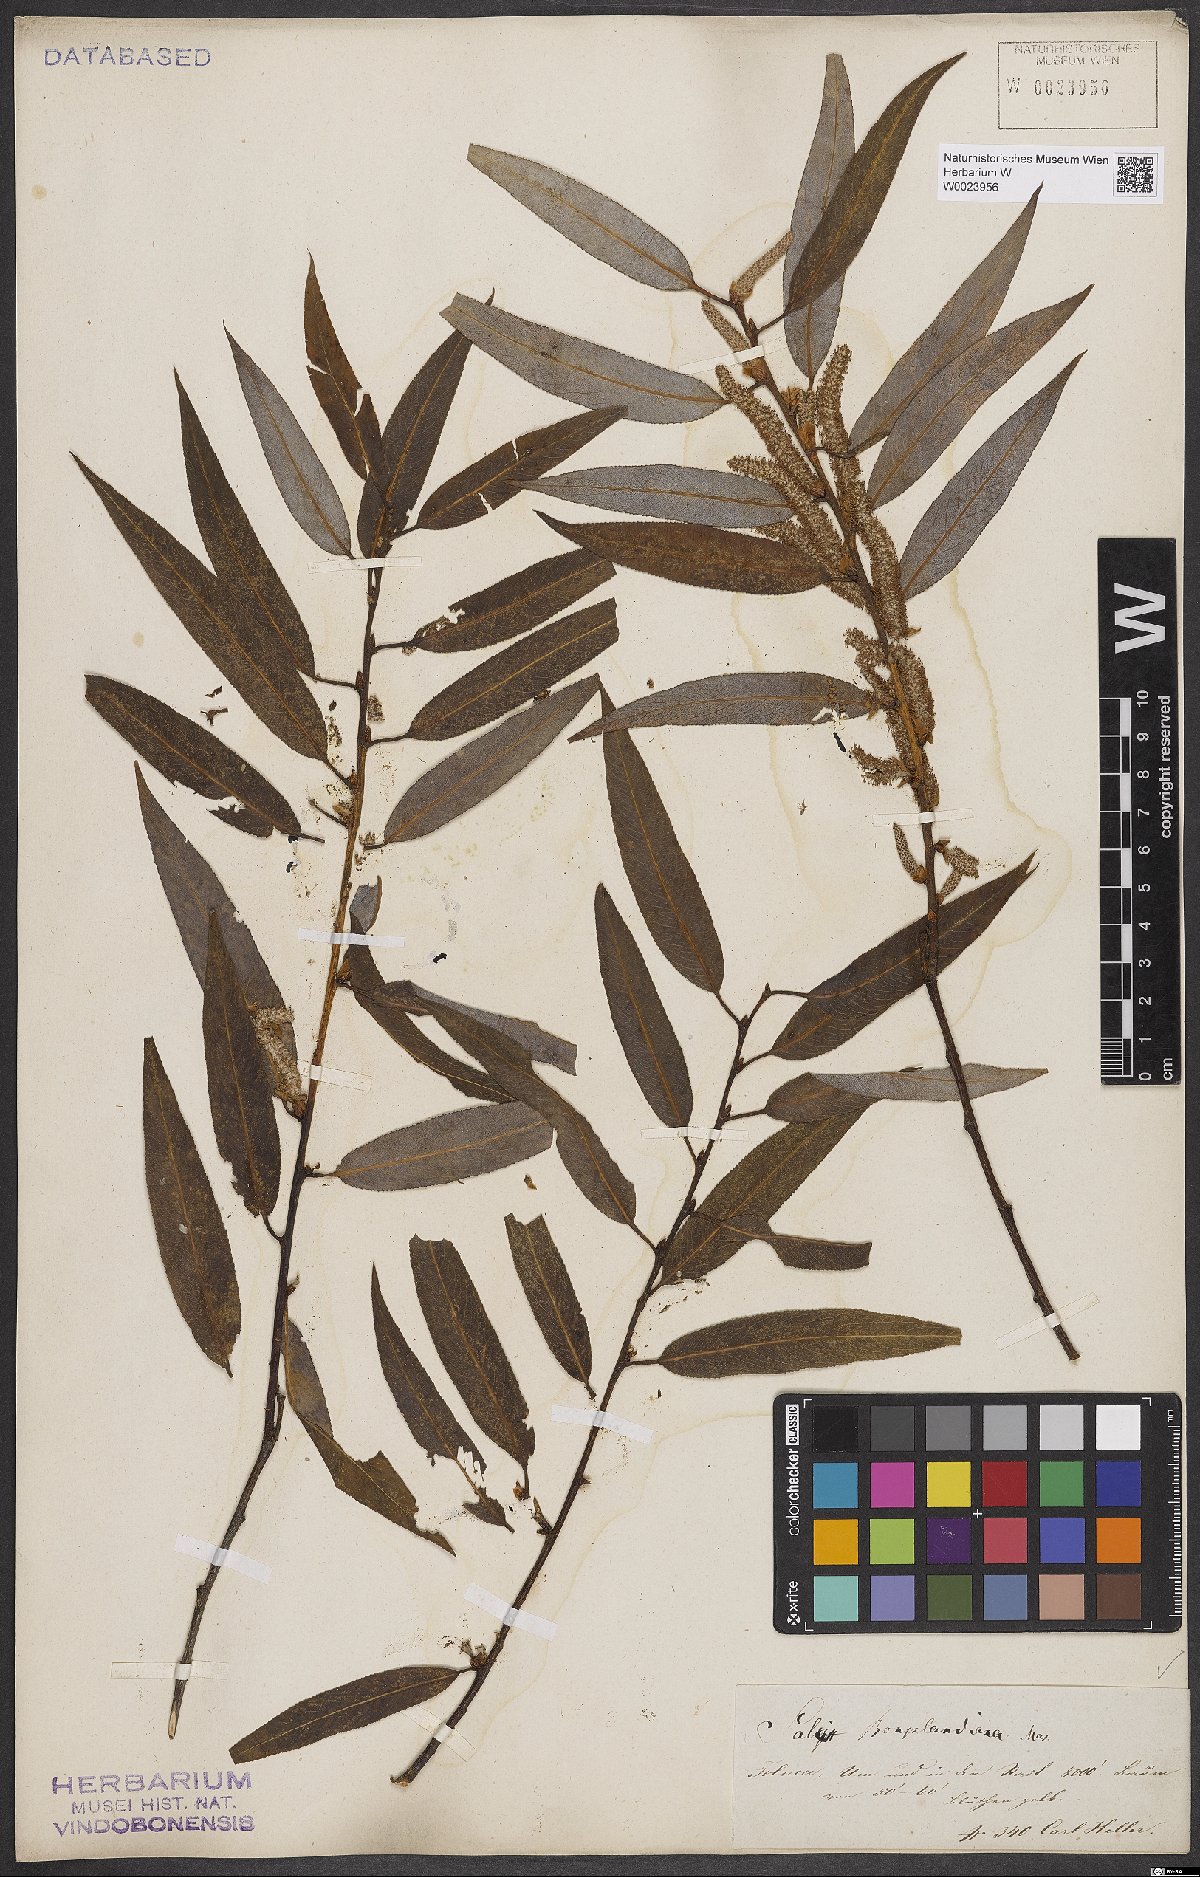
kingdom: Plantae
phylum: Tracheophyta
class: Magnoliopsida
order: Malpighiales
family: Salicaceae
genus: Salix
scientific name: Salix bonplandiana
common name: Bonpland’s willow
